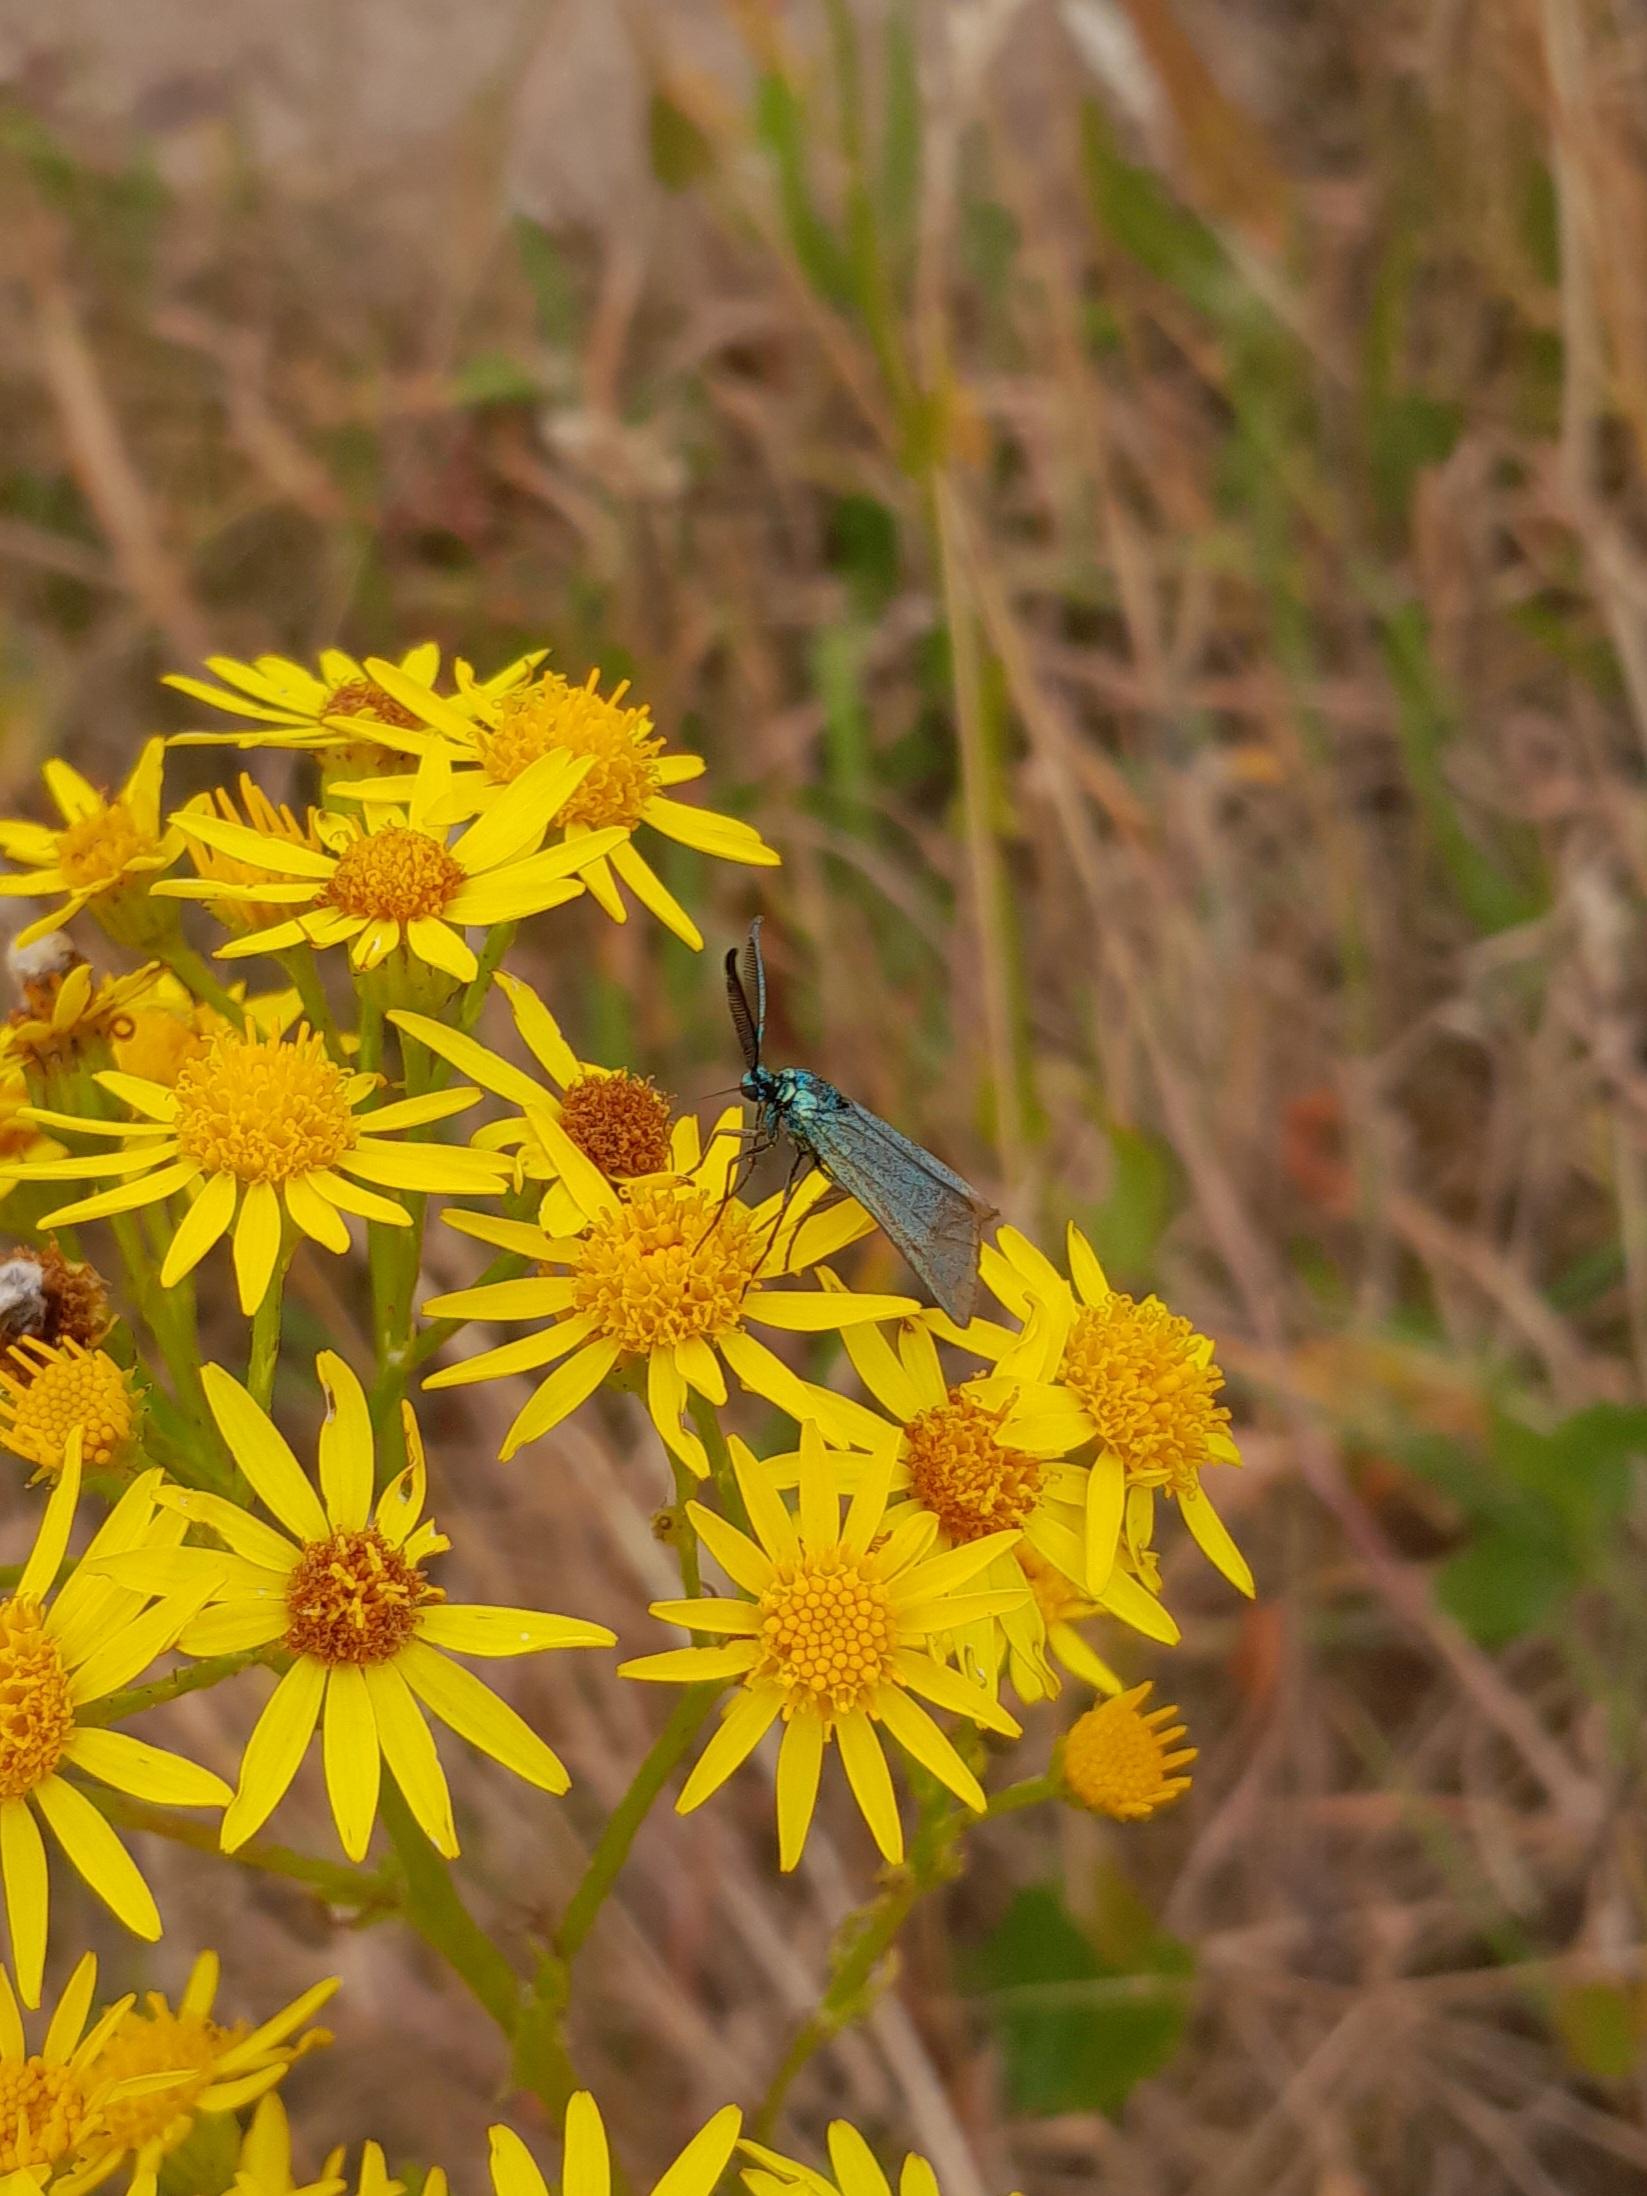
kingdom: Animalia
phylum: Arthropoda
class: Insecta
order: Lepidoptera
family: Zygaenidae
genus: Adscita
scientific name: Adscita statices
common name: Metalvinge
